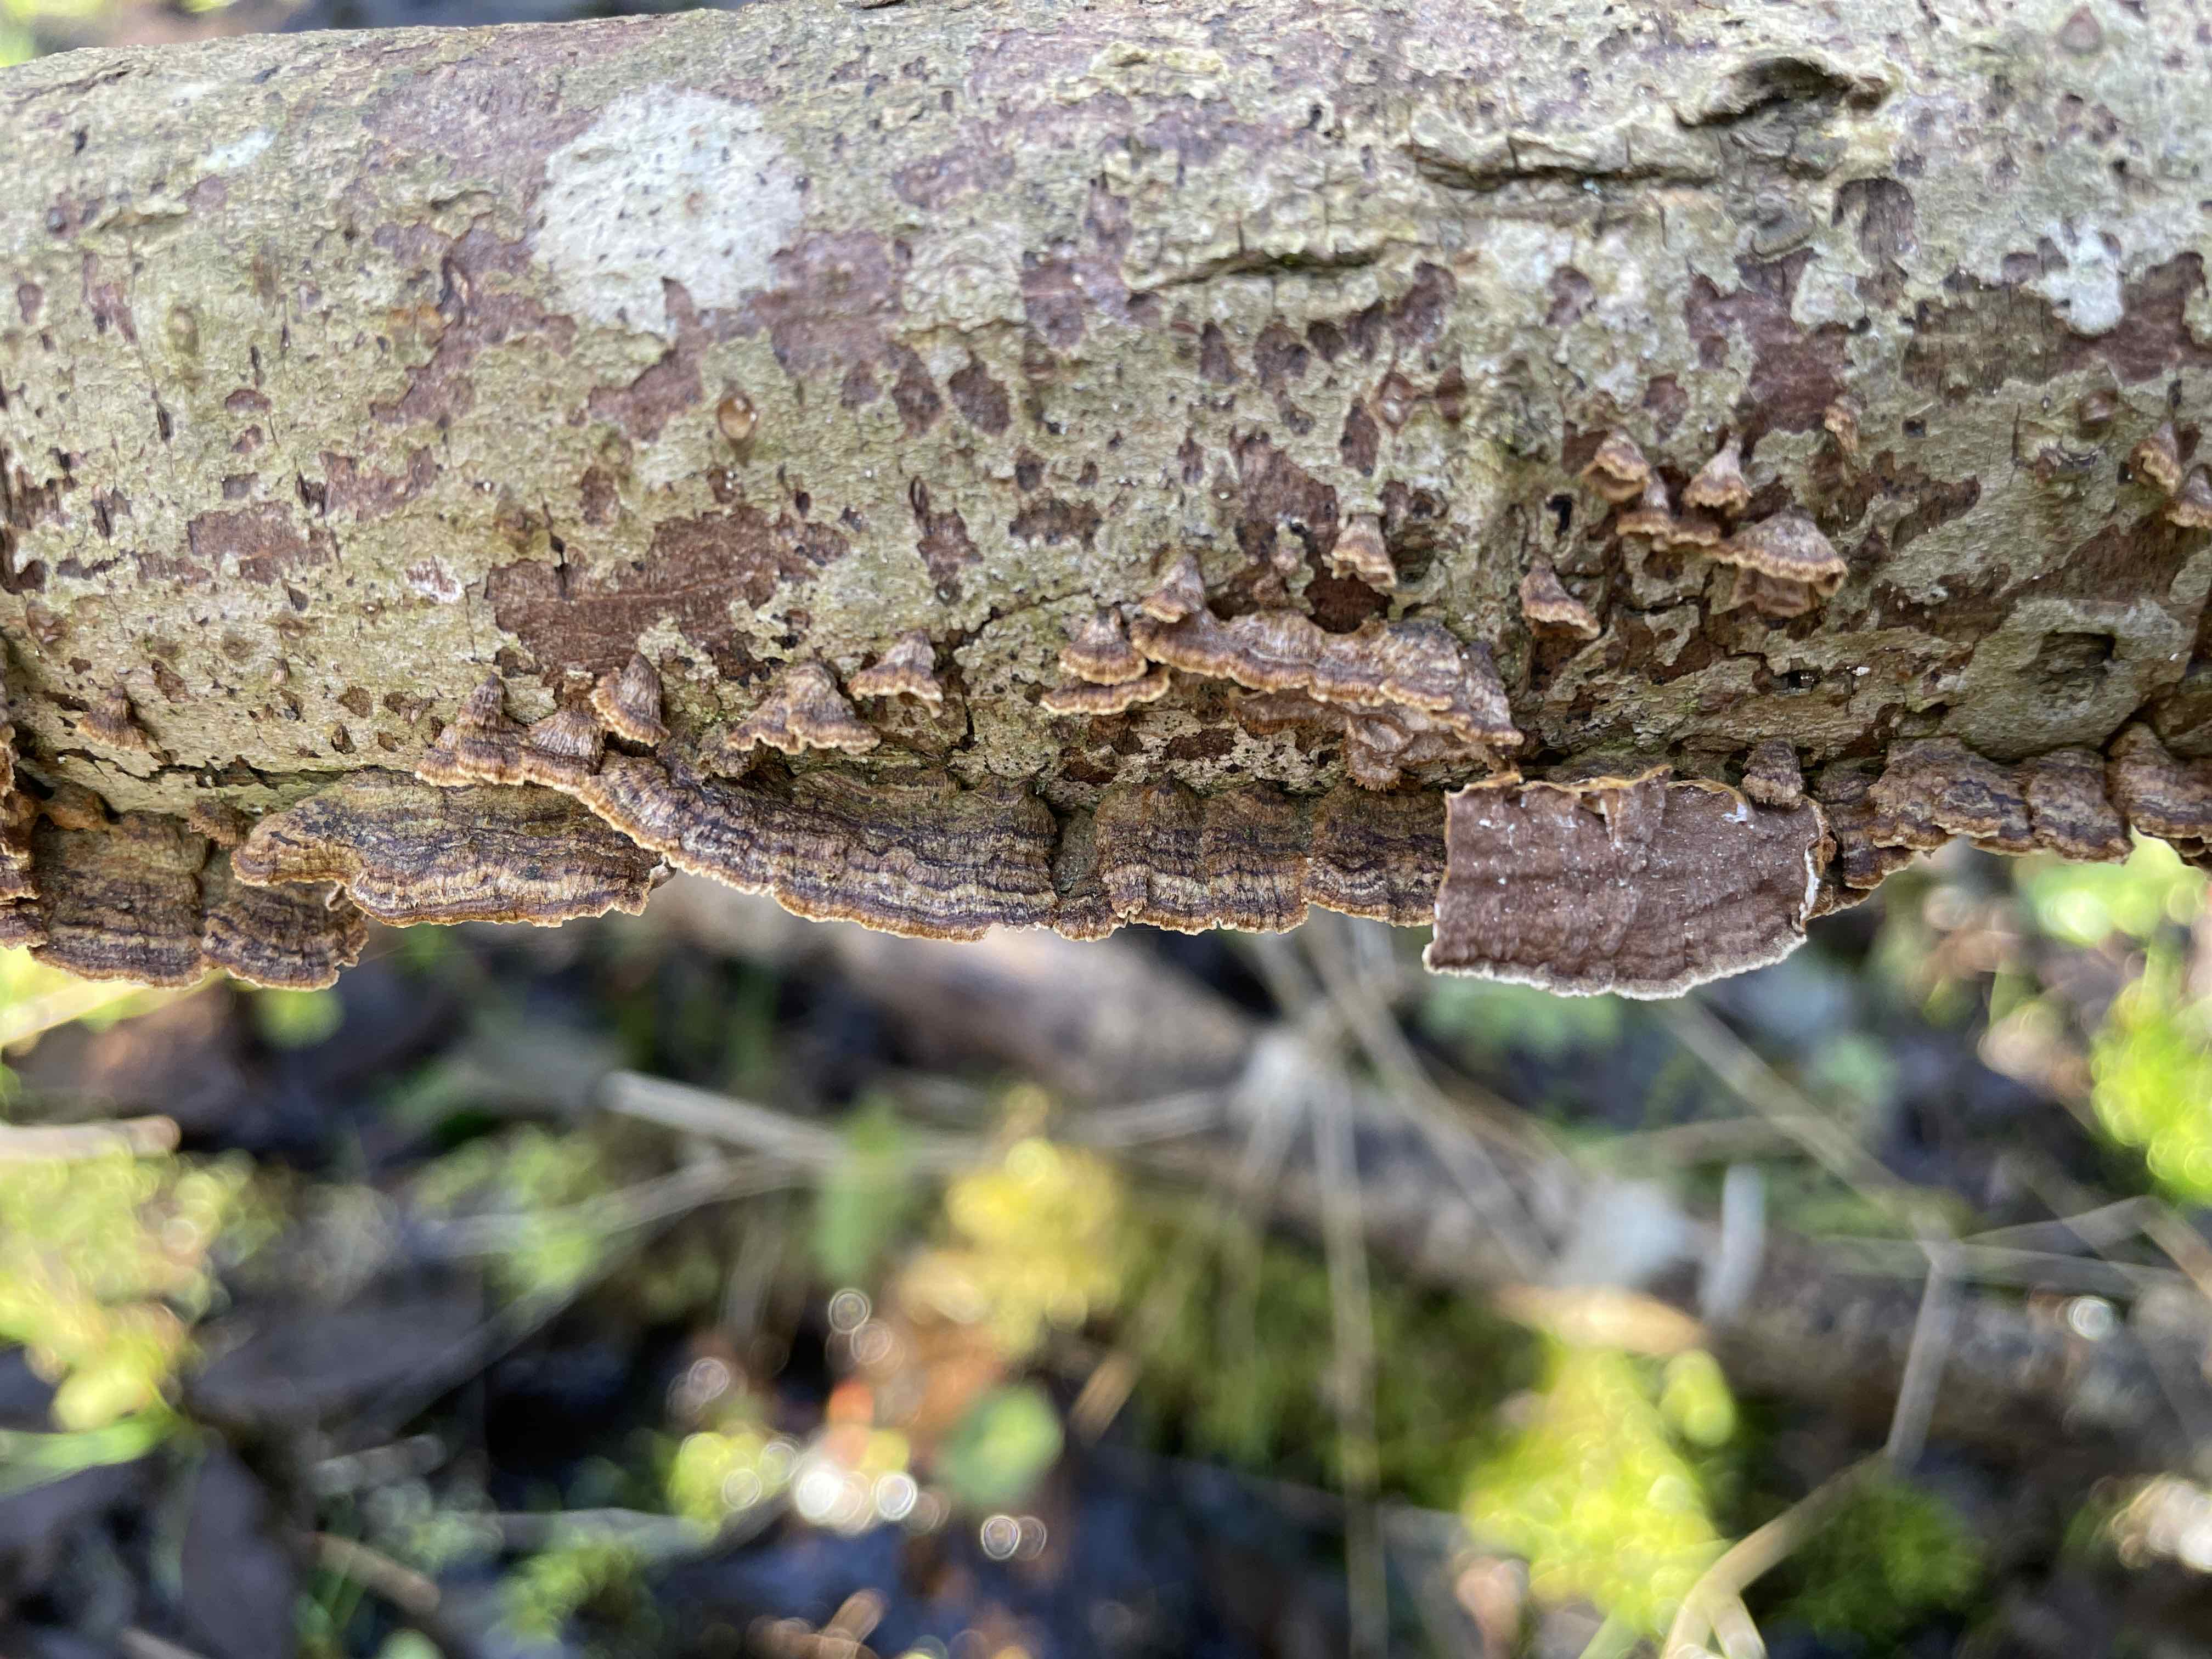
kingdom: Fungi
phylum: Basidiomycota
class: Agaricomycetes
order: Hymenochaetales
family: Hymenochaetaceae
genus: Hydnoporia
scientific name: Hydnoporia tabacina
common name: tobaksbrun ruslædersvamp
